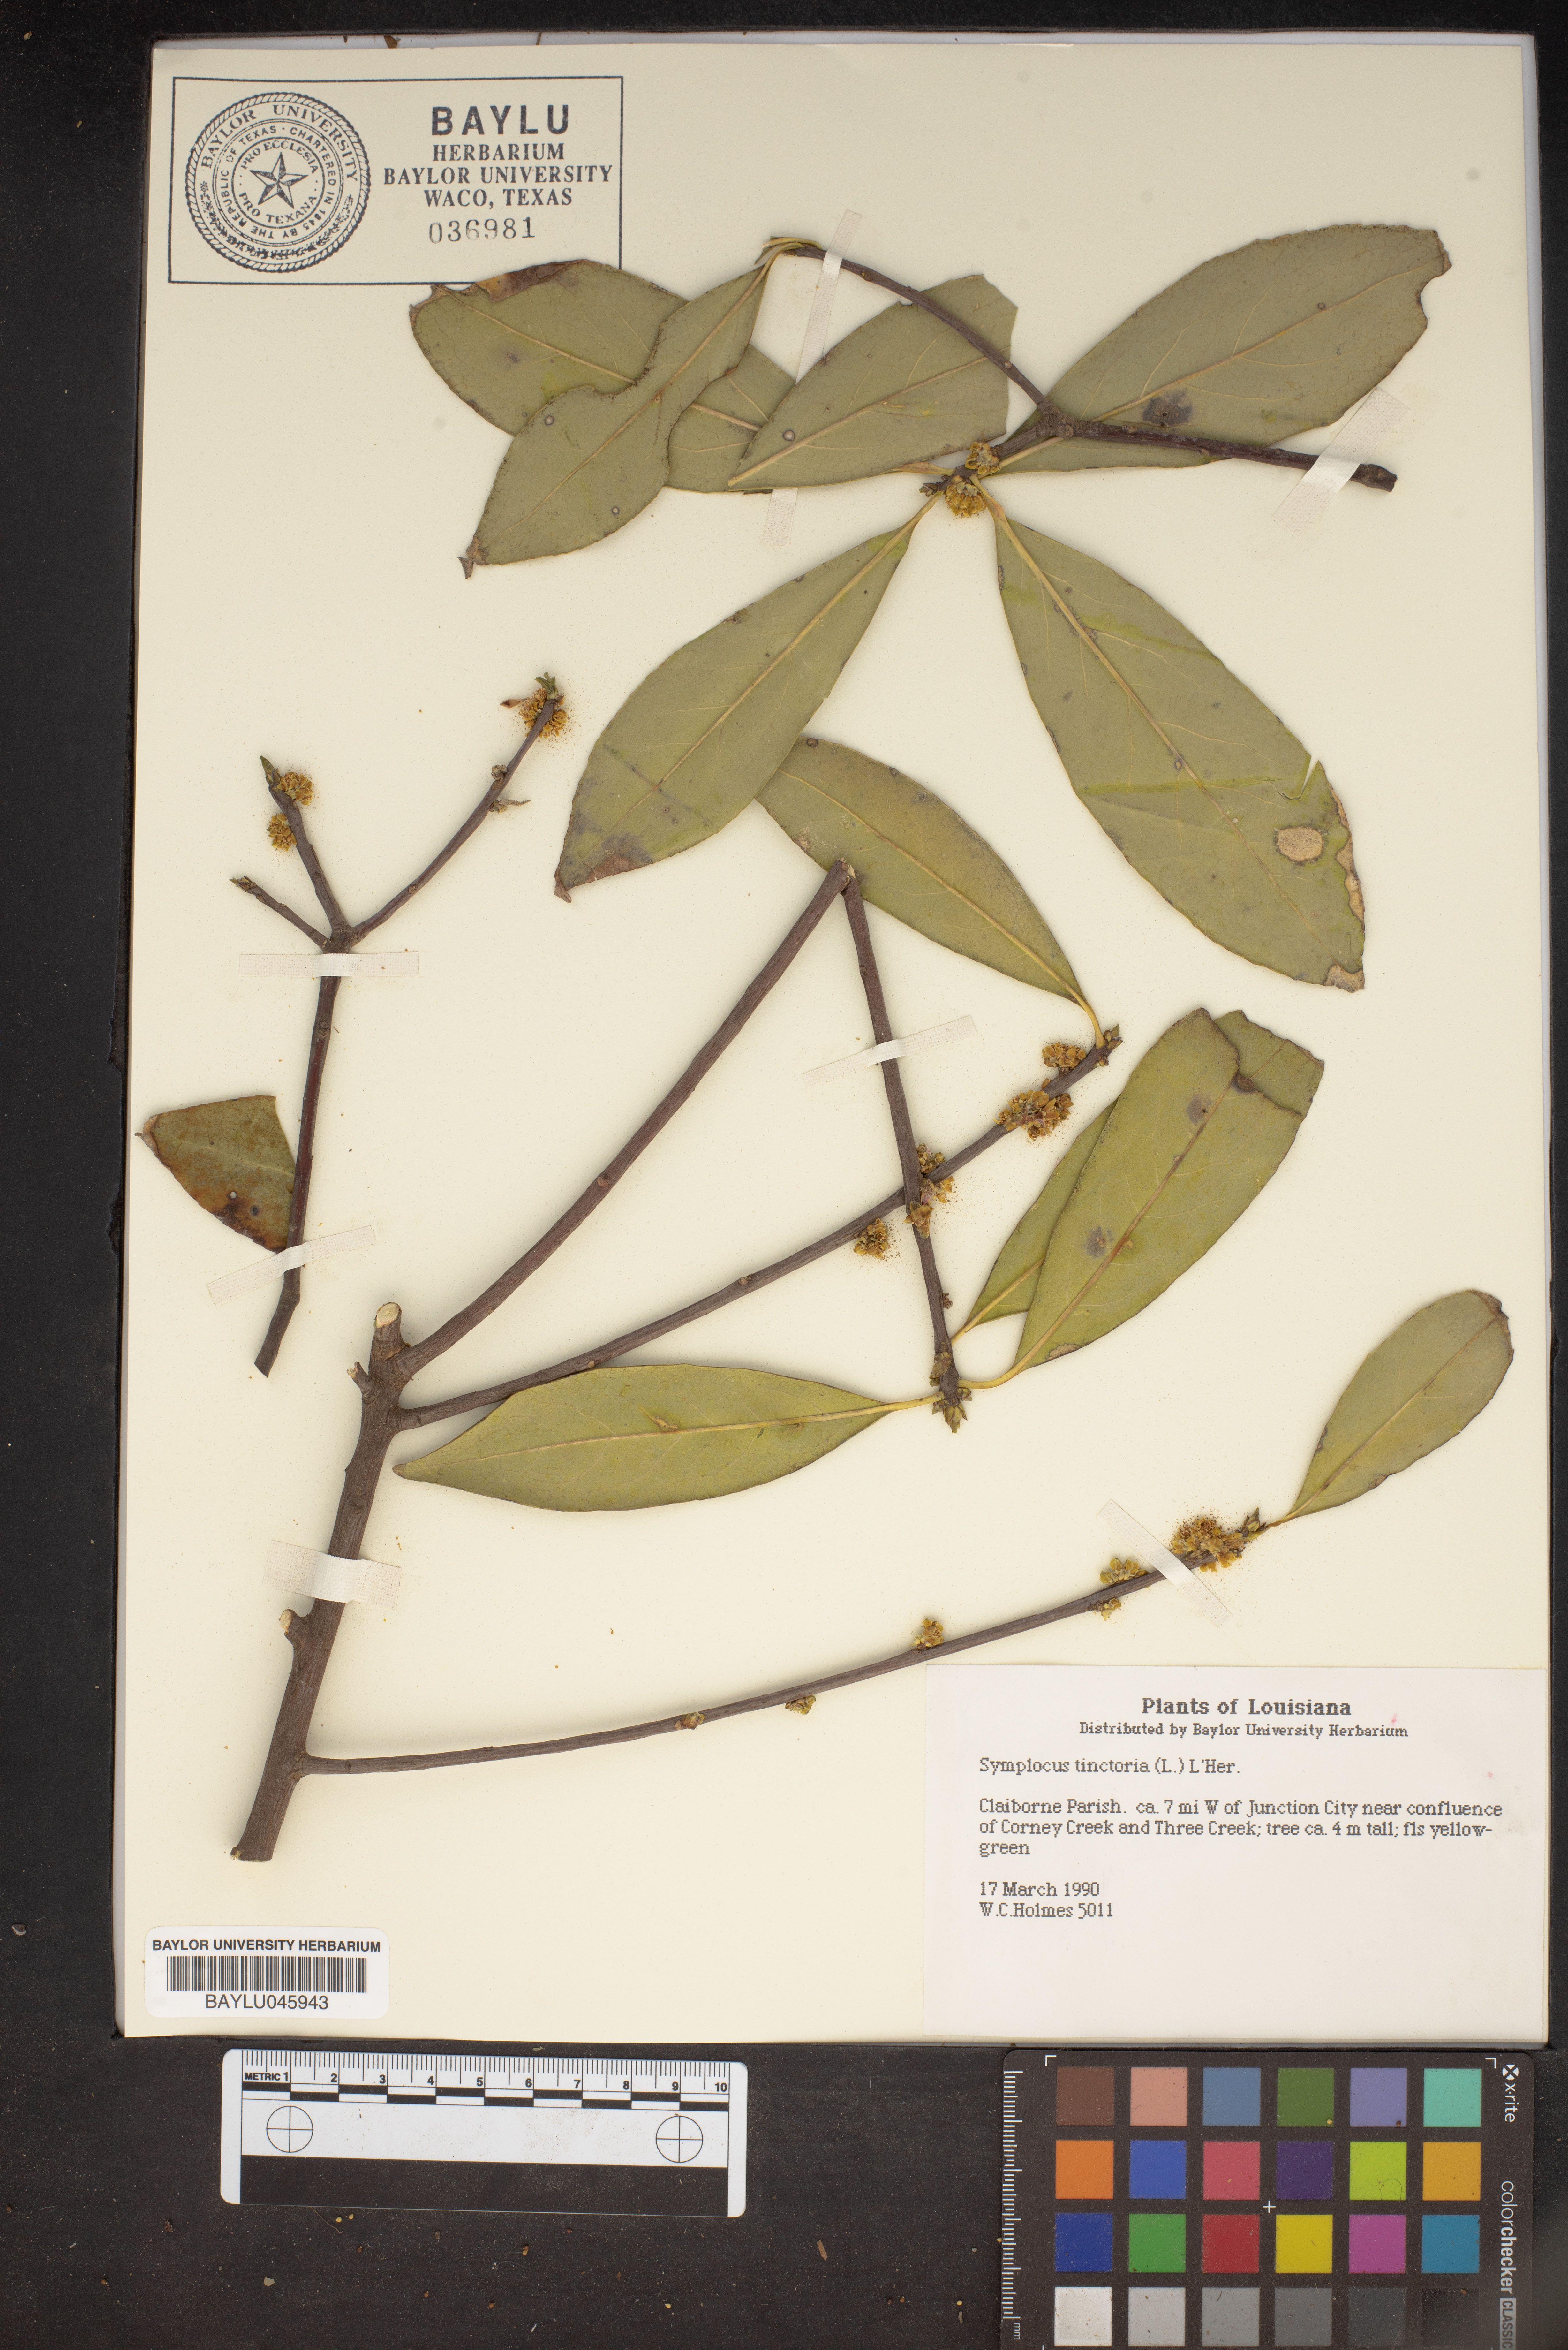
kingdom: Plantae
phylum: Tracheophyta
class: Magnoliopsida
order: Ericales
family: Symplocaceae
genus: Symplocos
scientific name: Symplocos tinctoria
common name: Horse-sugar
